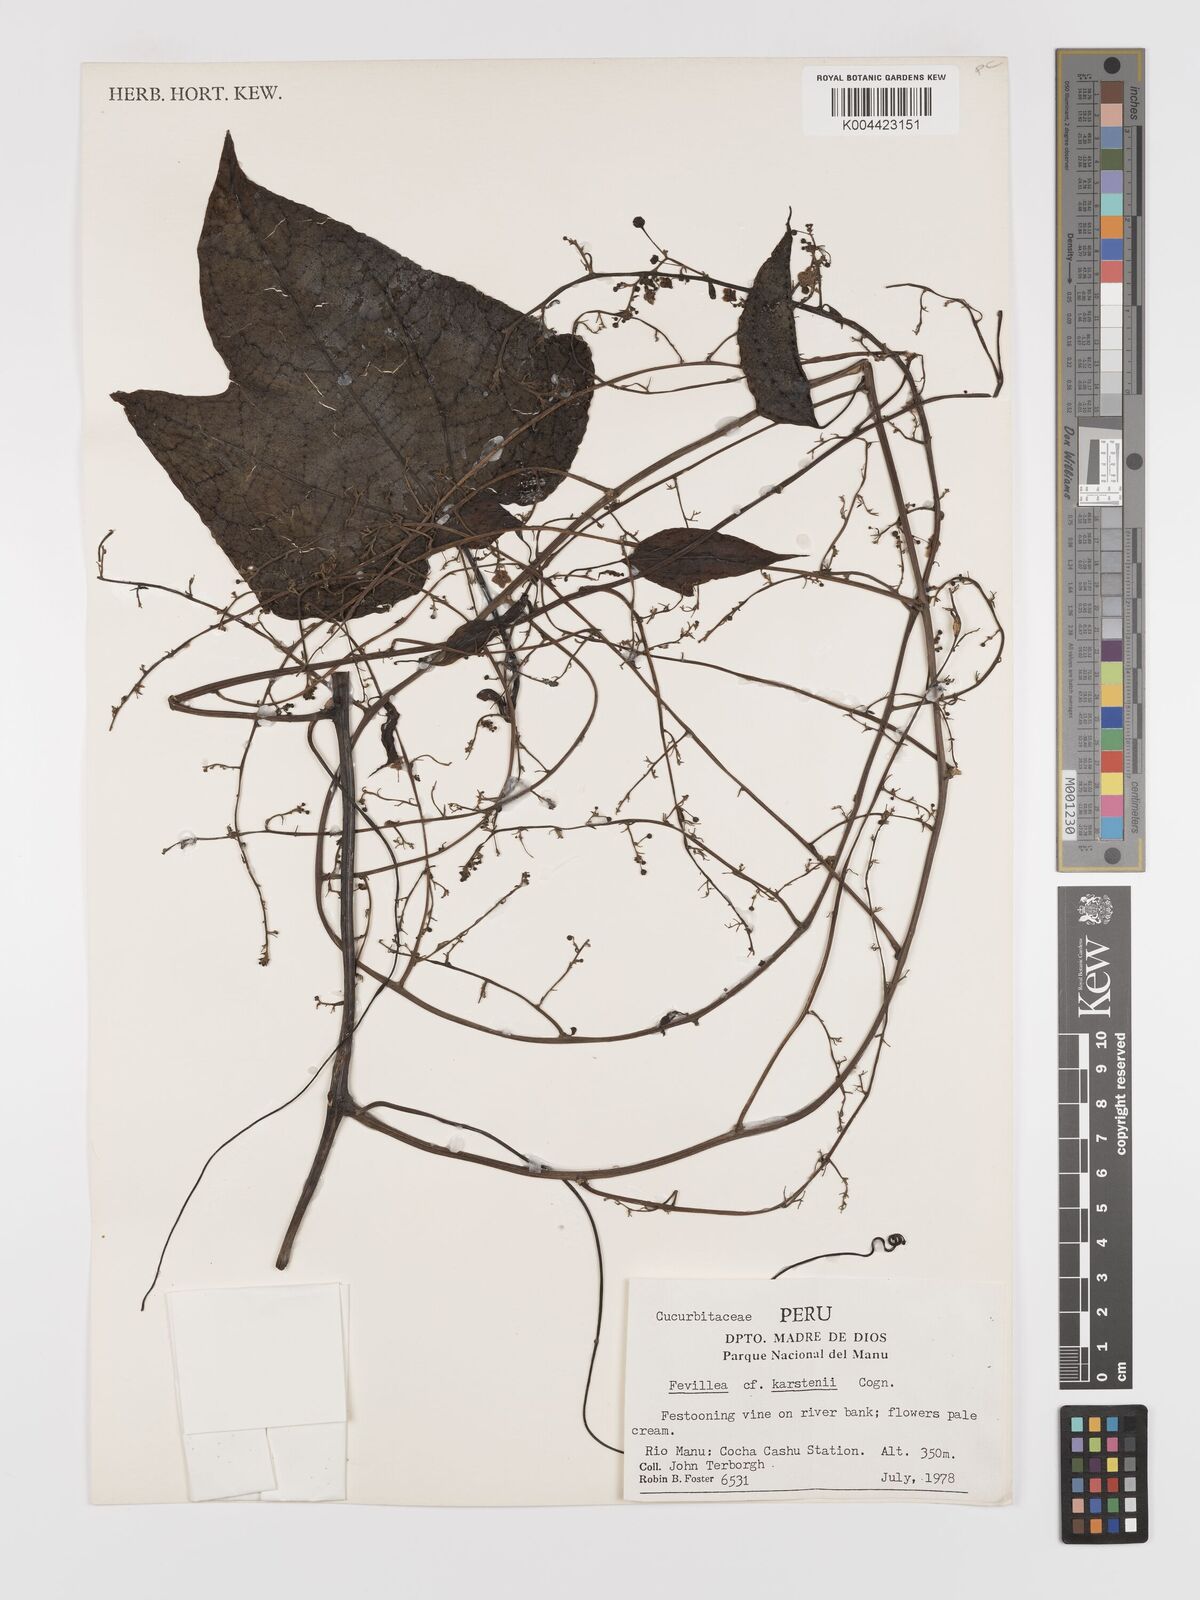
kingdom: Plantae
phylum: Tracheophyta
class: Magnoliopsida
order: Cucurbitales
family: Cucurbitaceae
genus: Fevillea
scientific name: Fevillea
